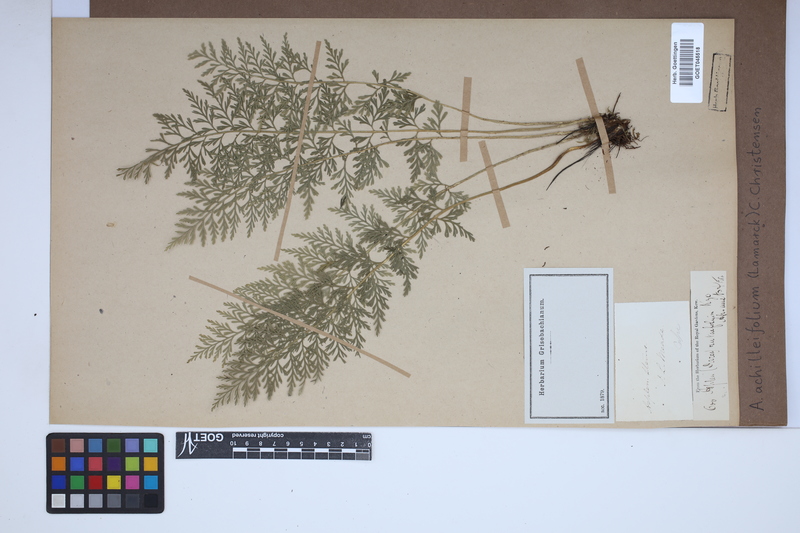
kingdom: Plantae
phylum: Tracheophyta
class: Polypodiopsida
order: Polypodiales
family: Aspleniaceae
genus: Asplenium
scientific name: Asplenium rutifolium
